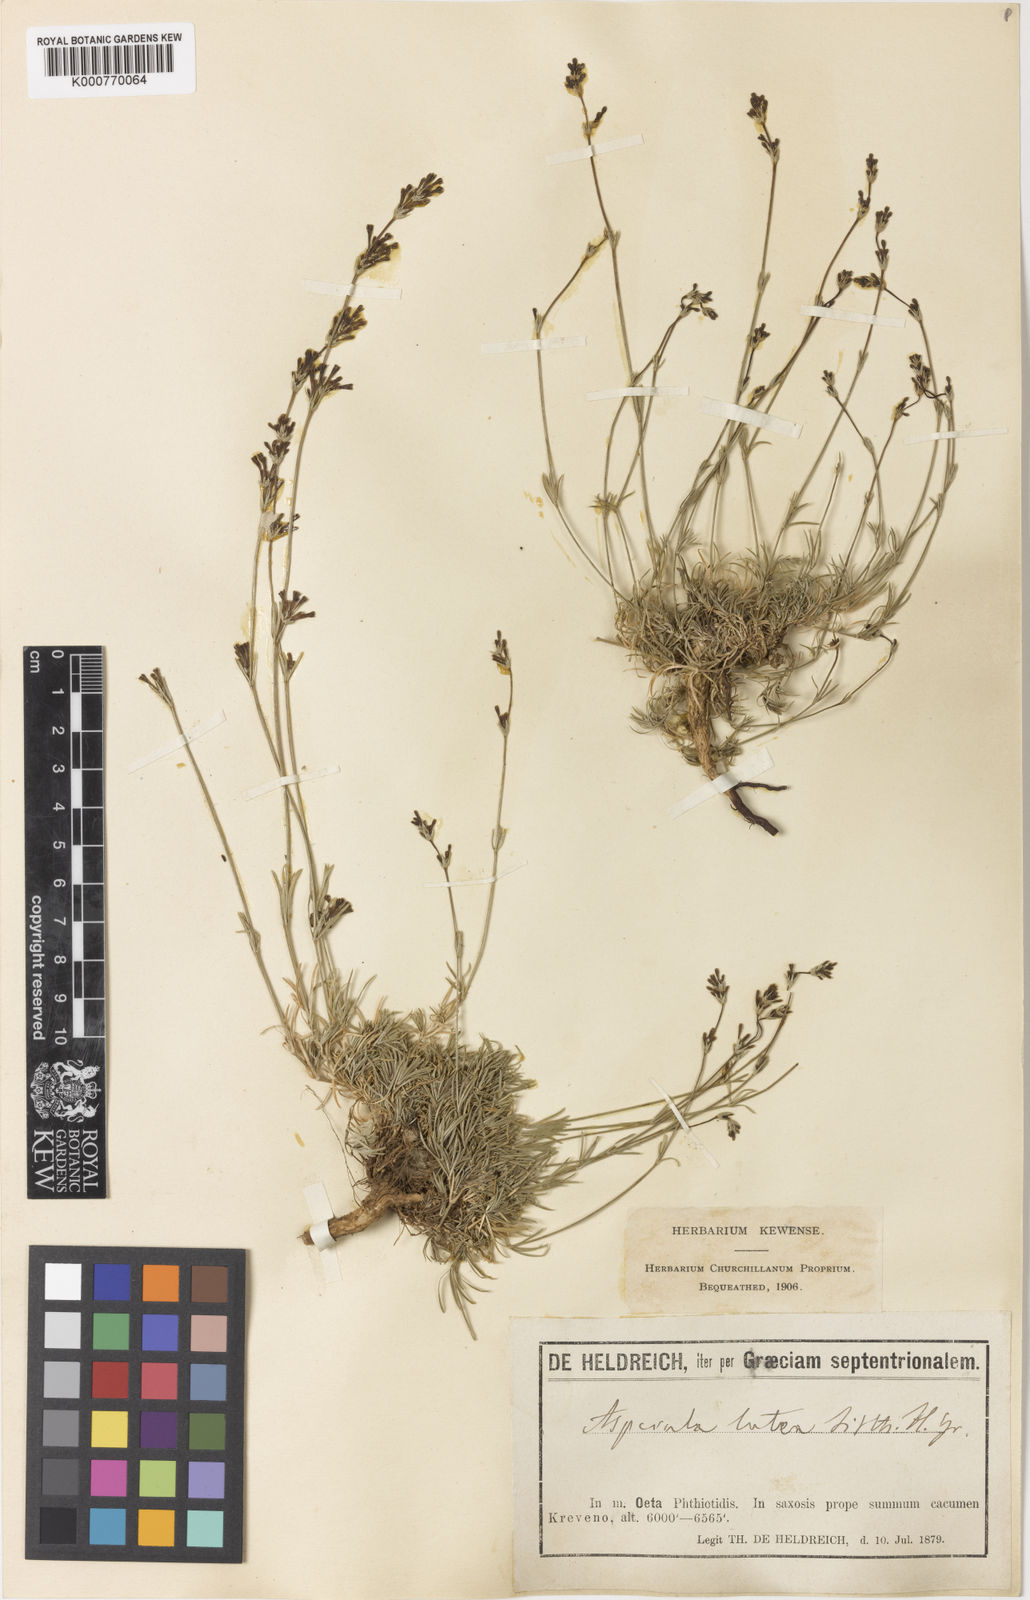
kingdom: Plantae
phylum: Tracheophyta
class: Magnoliopsida
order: Gentianales
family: Rubiaceae
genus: Asperula
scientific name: Asperula
